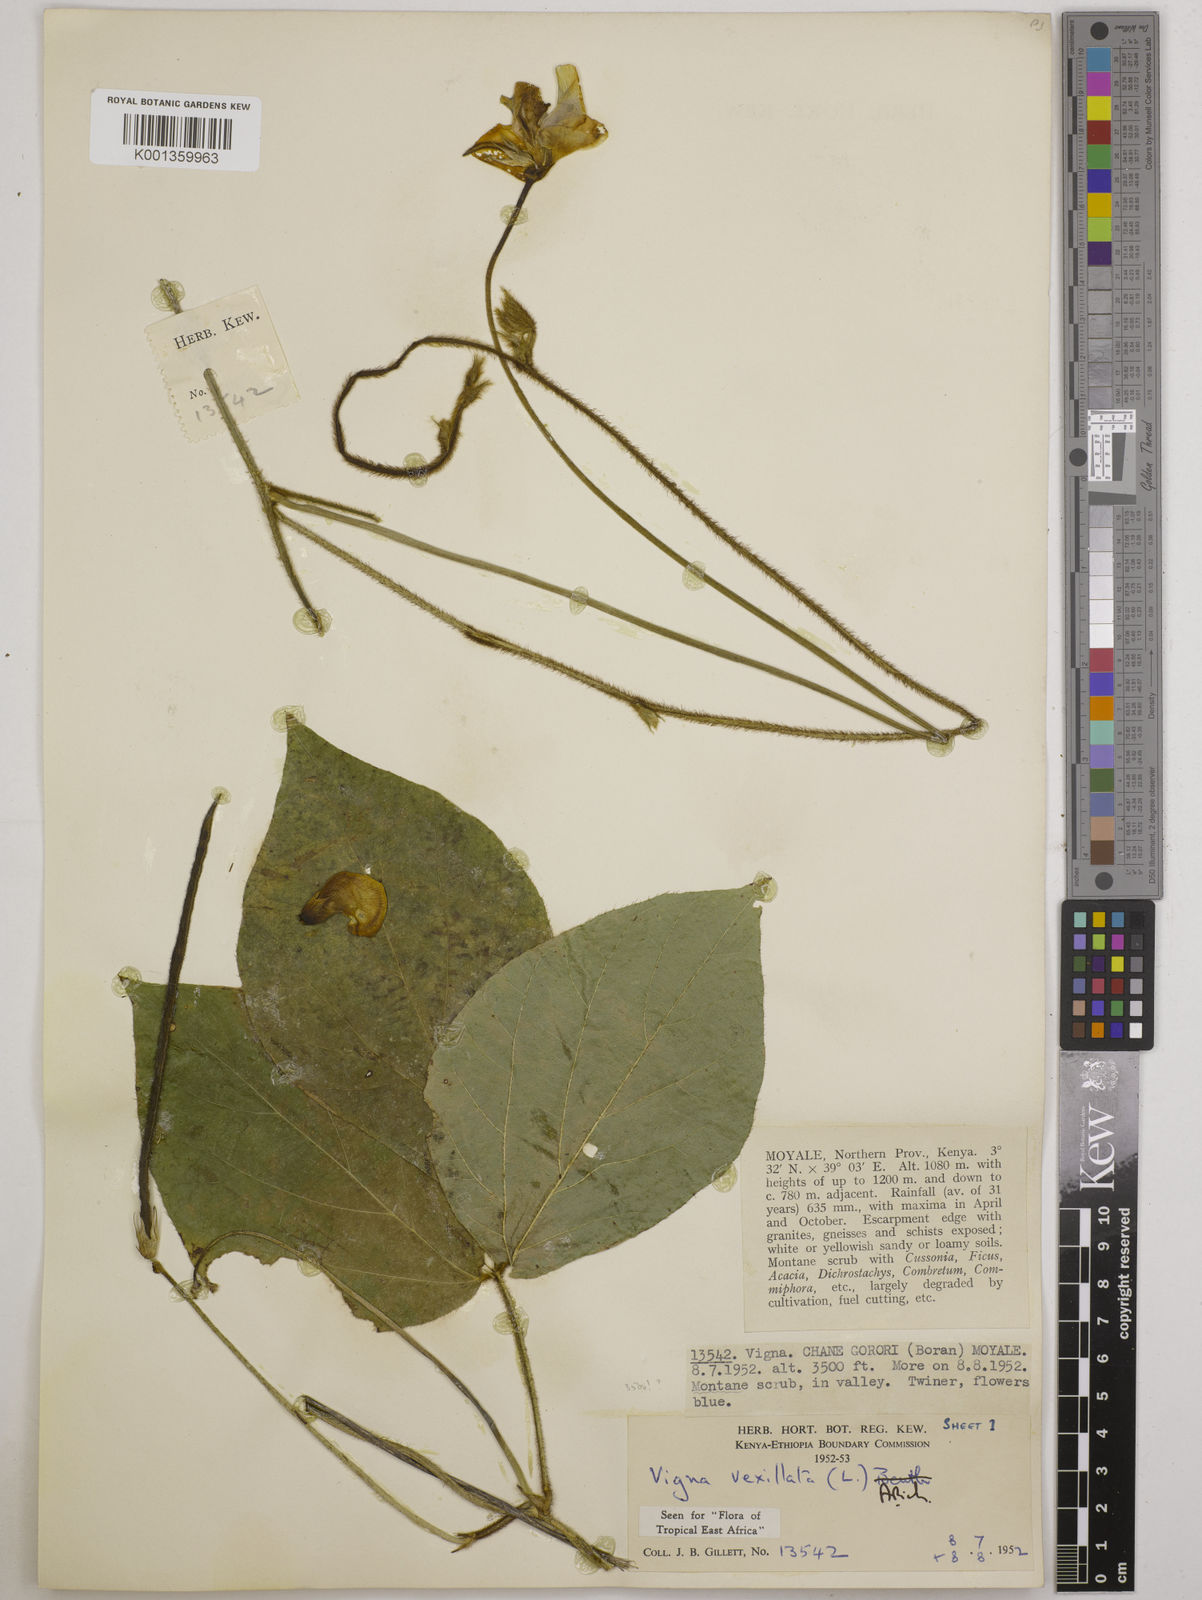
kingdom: Plantae
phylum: Tracheophyta
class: Magnoliopsida
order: Fabales
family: Fabaceae
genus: Vigna
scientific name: Vigna vexillata
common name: Zombi pea
